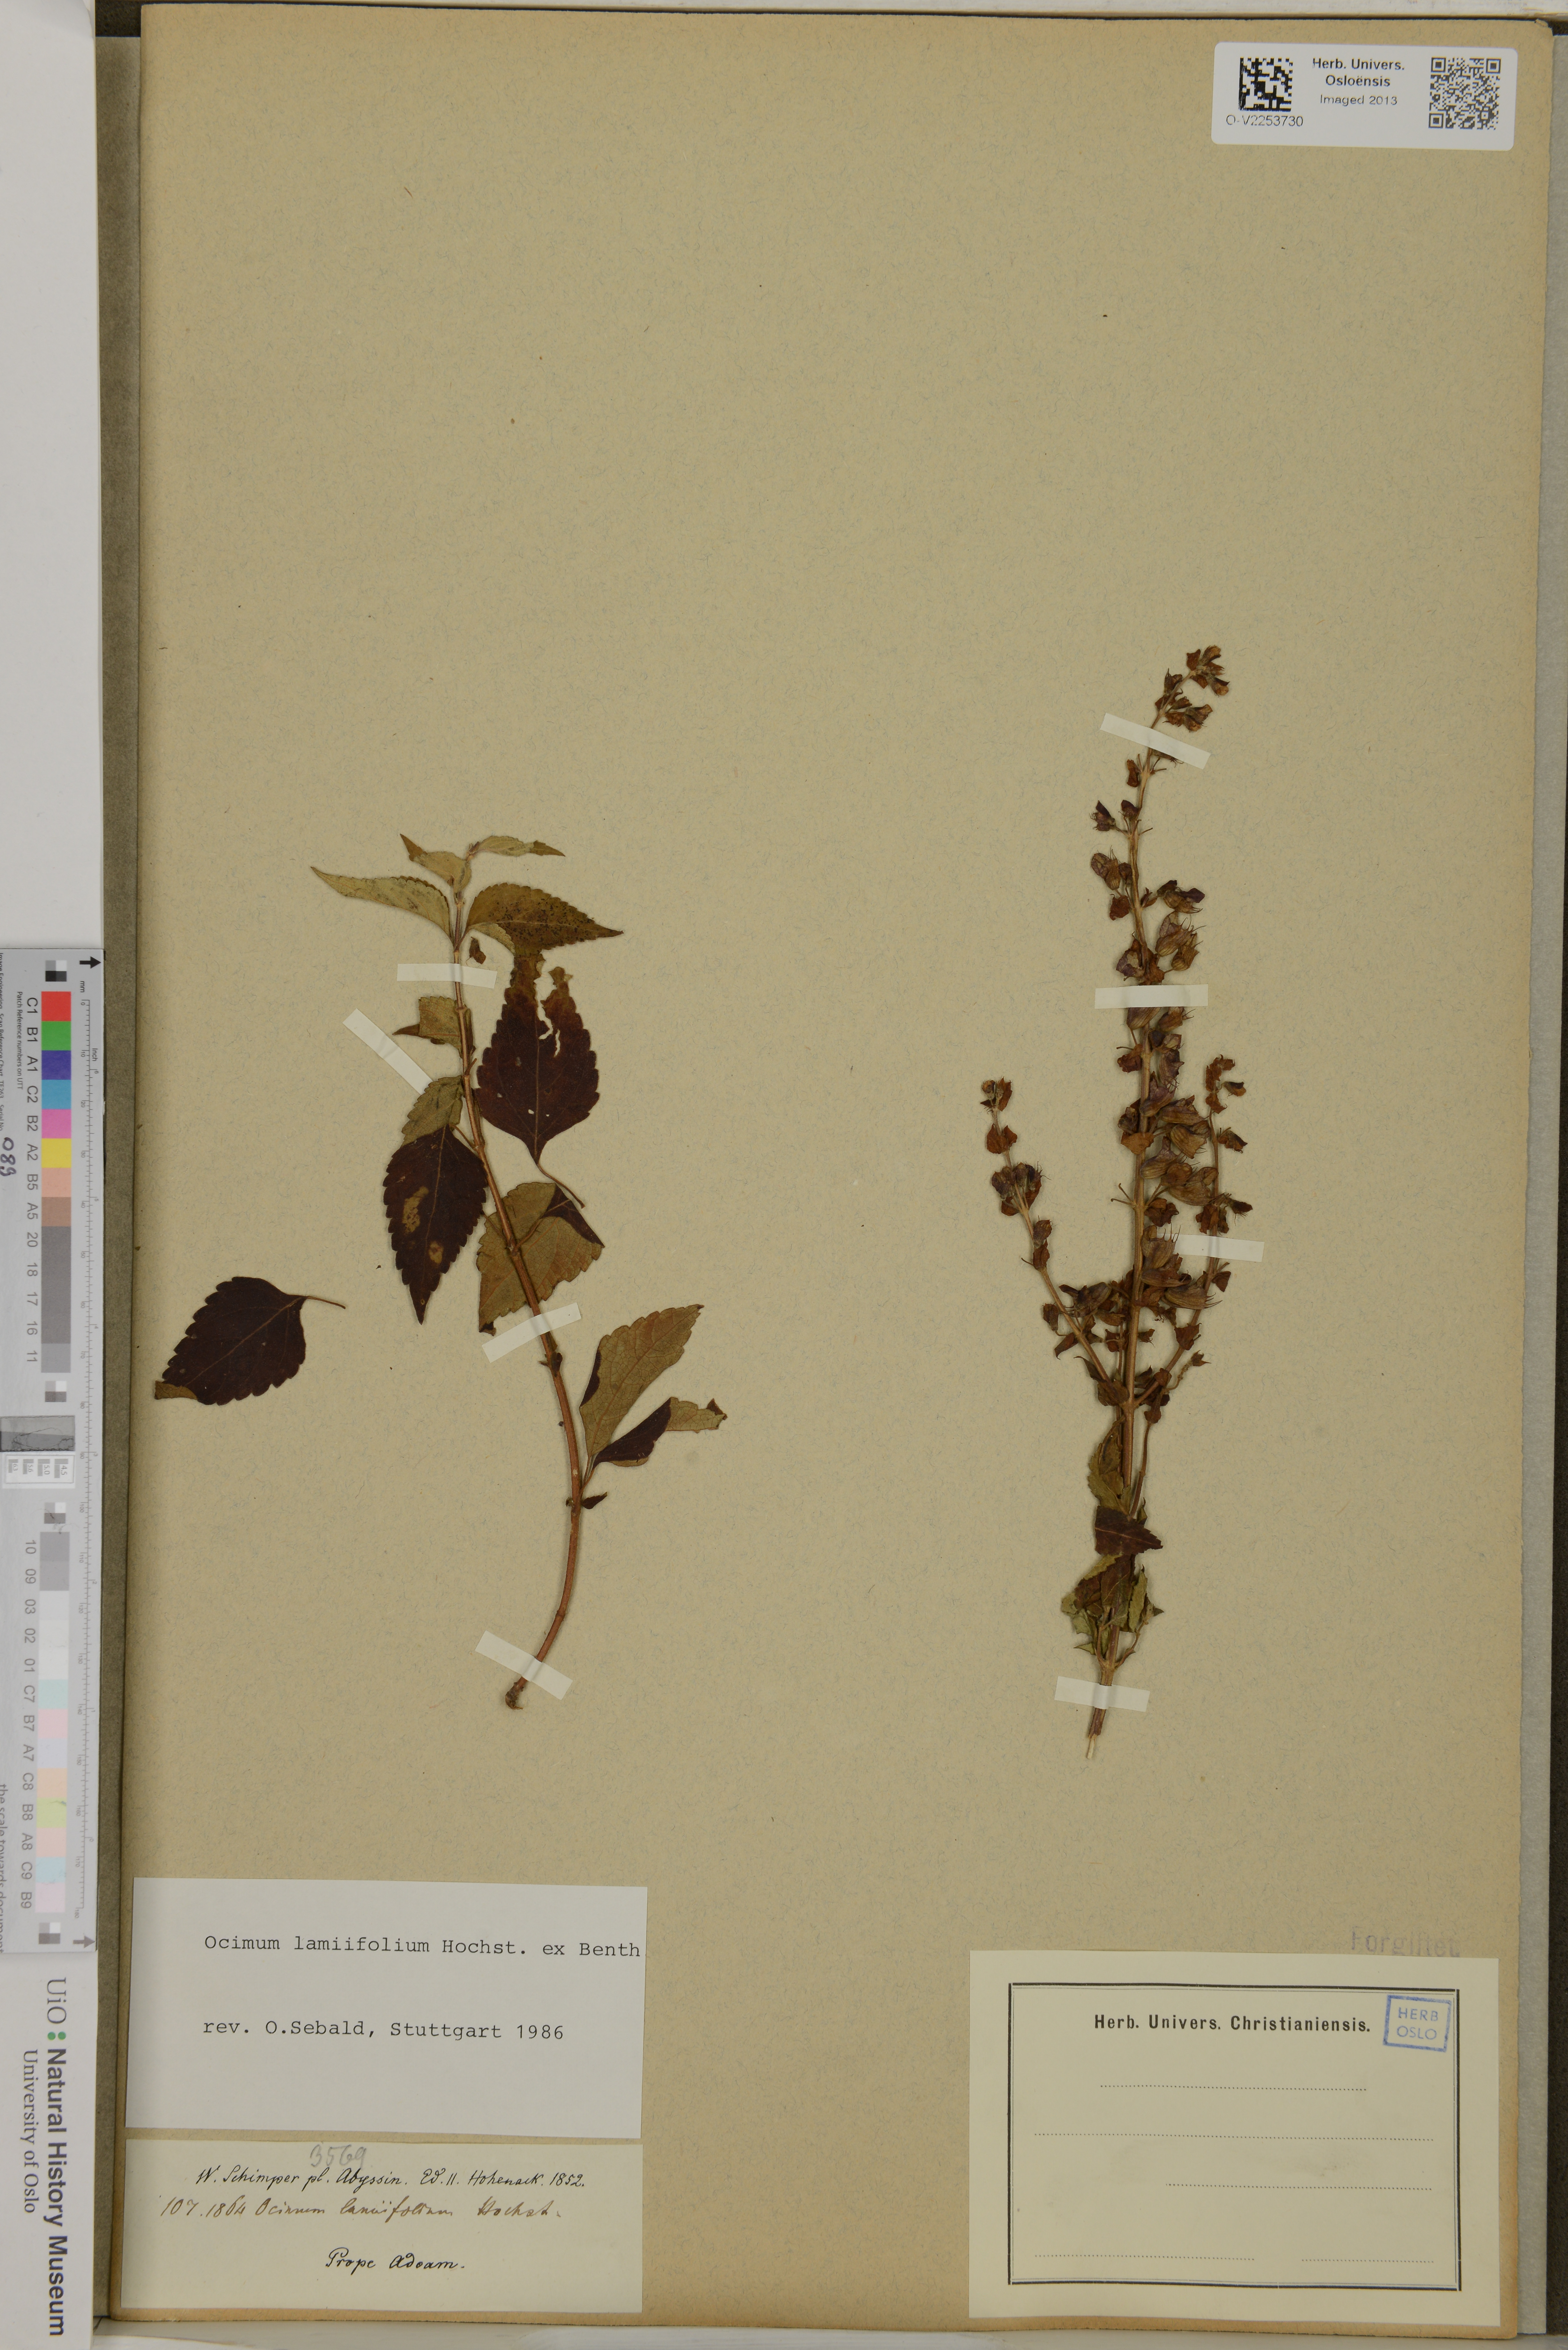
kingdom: Plantae
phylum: Tracheophyta
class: Magnoliopsida
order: Lamiales
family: Lamiaceae
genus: Ocimum
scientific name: Ocimum lamiifolium
